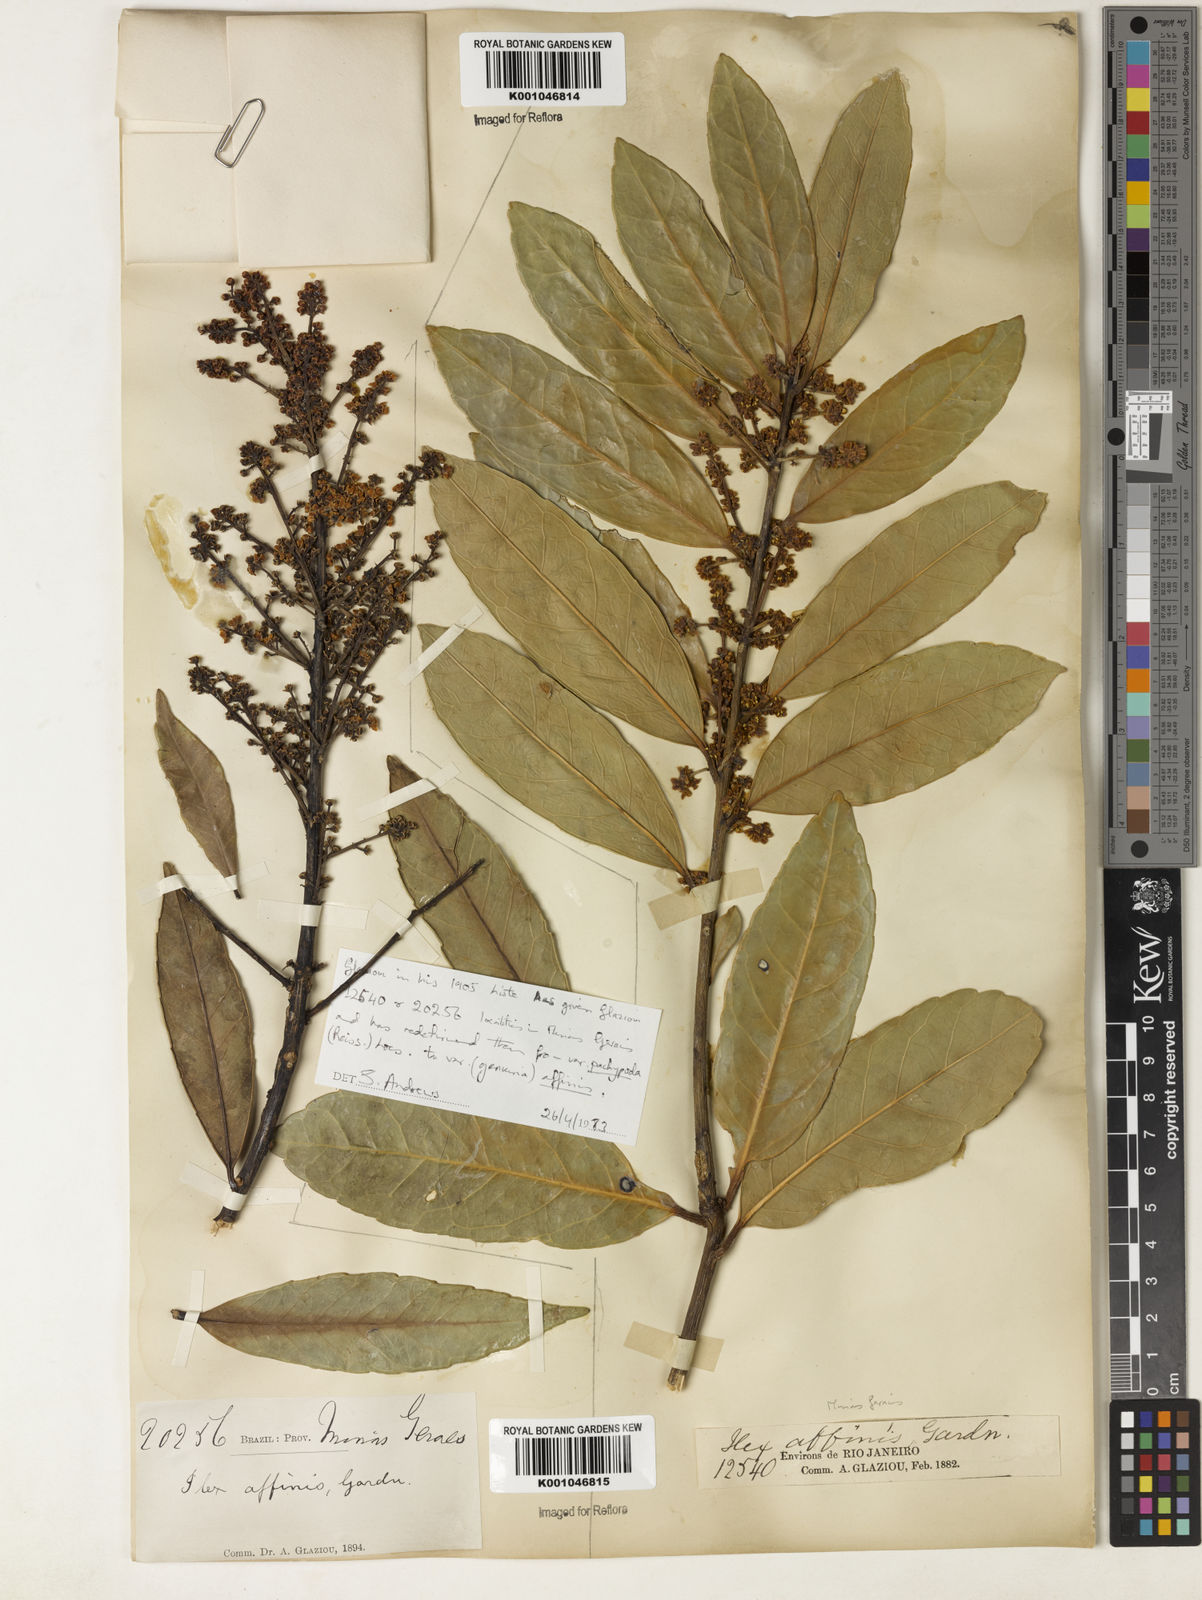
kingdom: Plantae
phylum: Tracheophyta
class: Magnoliopsida
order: Aquifoliales
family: Aquifoliaceae
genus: Ilex
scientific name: Ilex affinis
